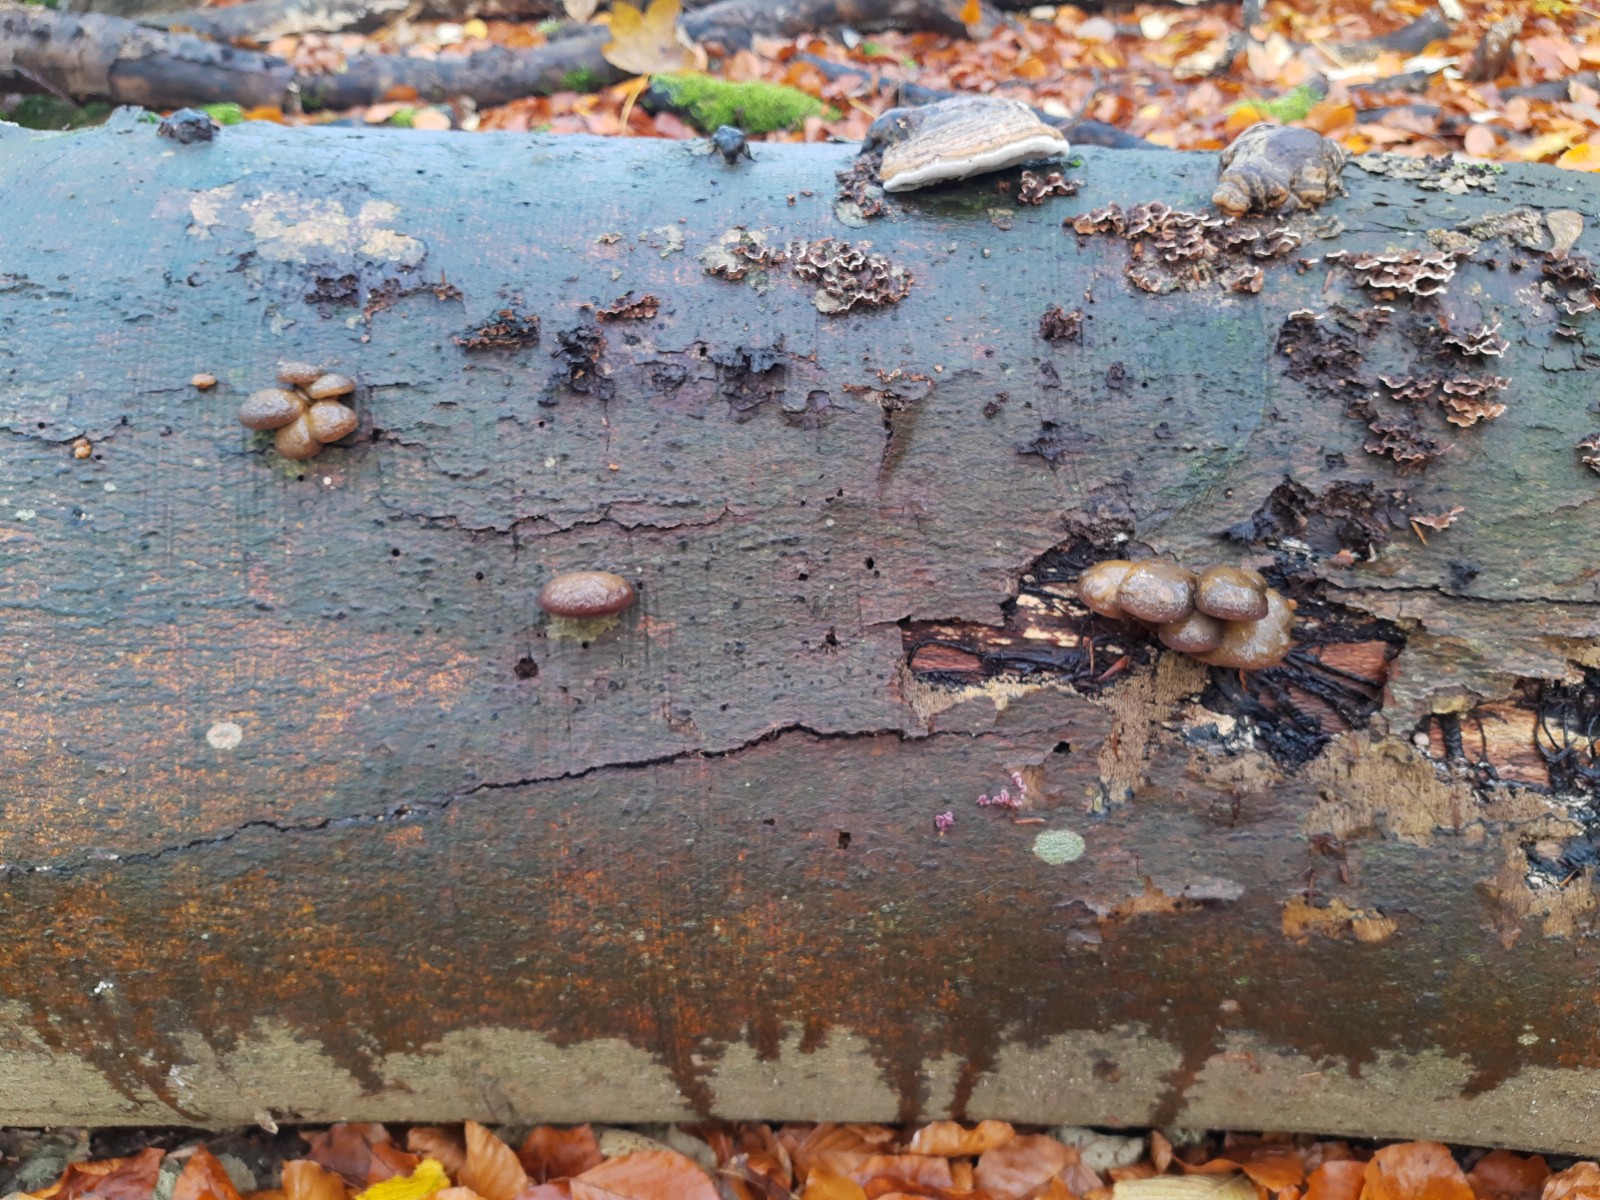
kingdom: Fungi
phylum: Basidiomycota
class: Agaricomycetes
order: Agaricales
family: Sarcomyxaceae
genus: Sarcomyxa
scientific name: Sarcomyxa serotina
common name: gummihat
